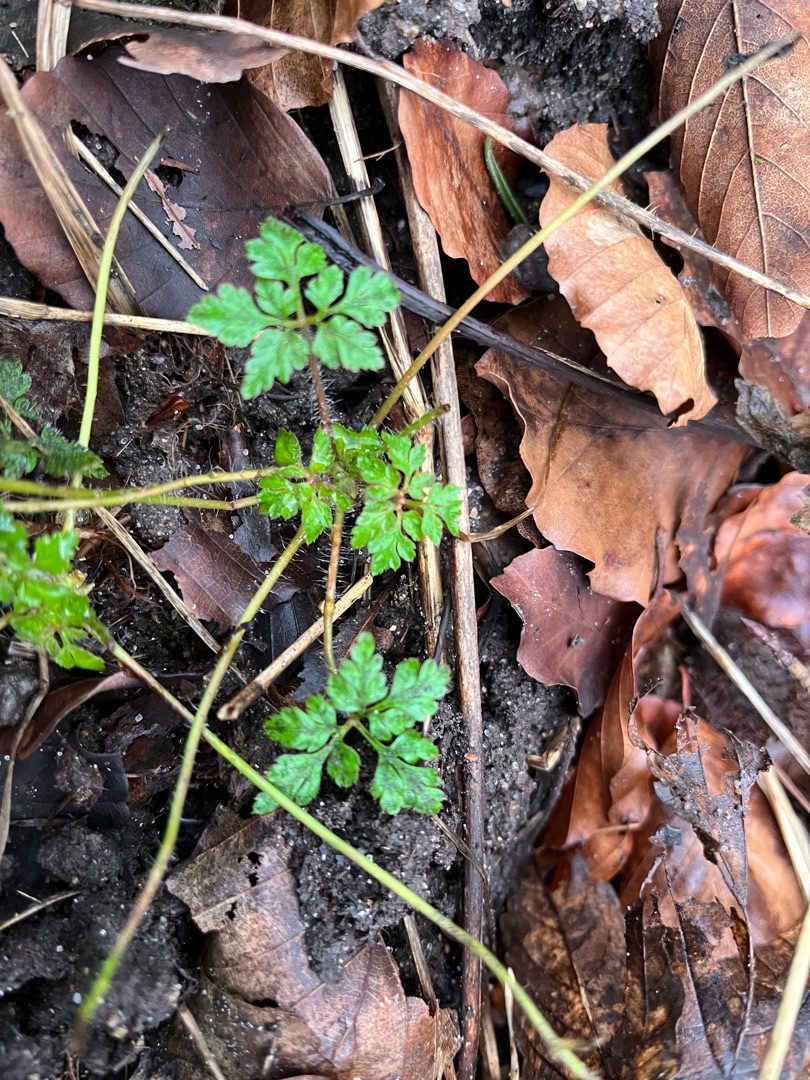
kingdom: Plantae
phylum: Tracheophyta
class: Magnoliopsida
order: Geraniales
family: Geraniaceae
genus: Geranium
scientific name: Geranium robertianum
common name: Stinkende storkenæb
